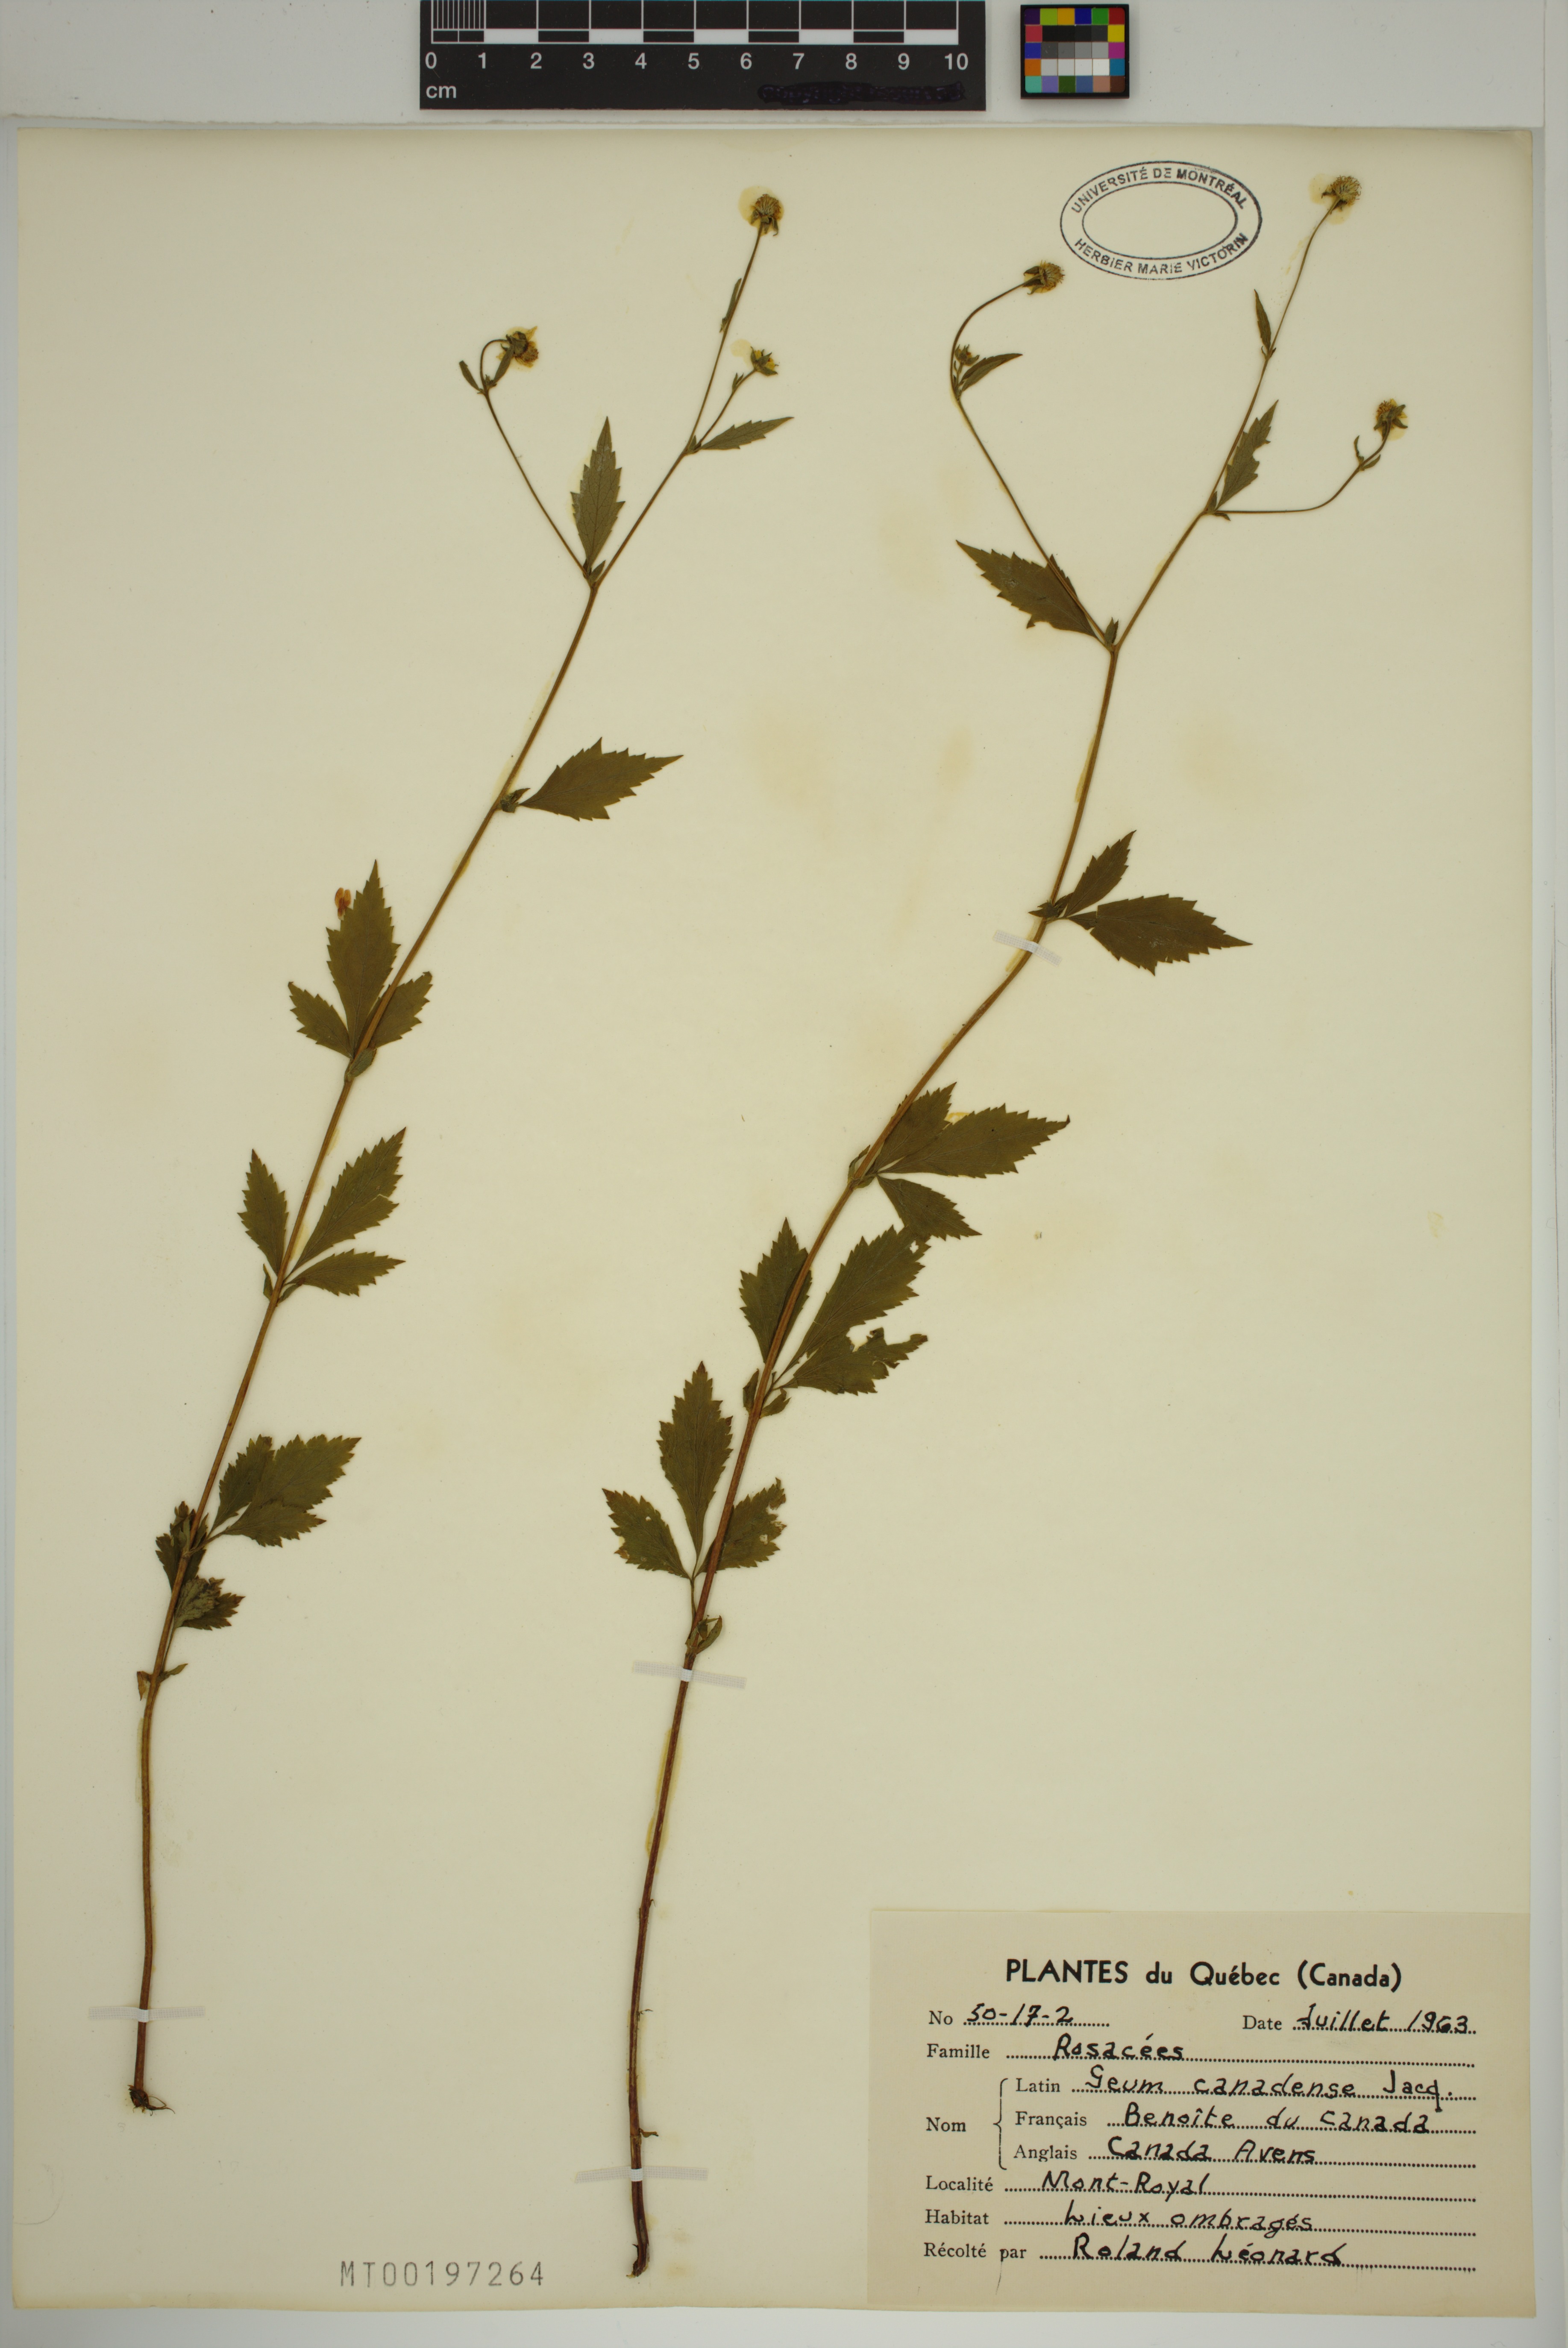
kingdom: Plantae
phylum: Tracheophyta
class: Magnoliopsida
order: Rosales
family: Rosaceae
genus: Geum
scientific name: Geum canadense
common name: White avens
